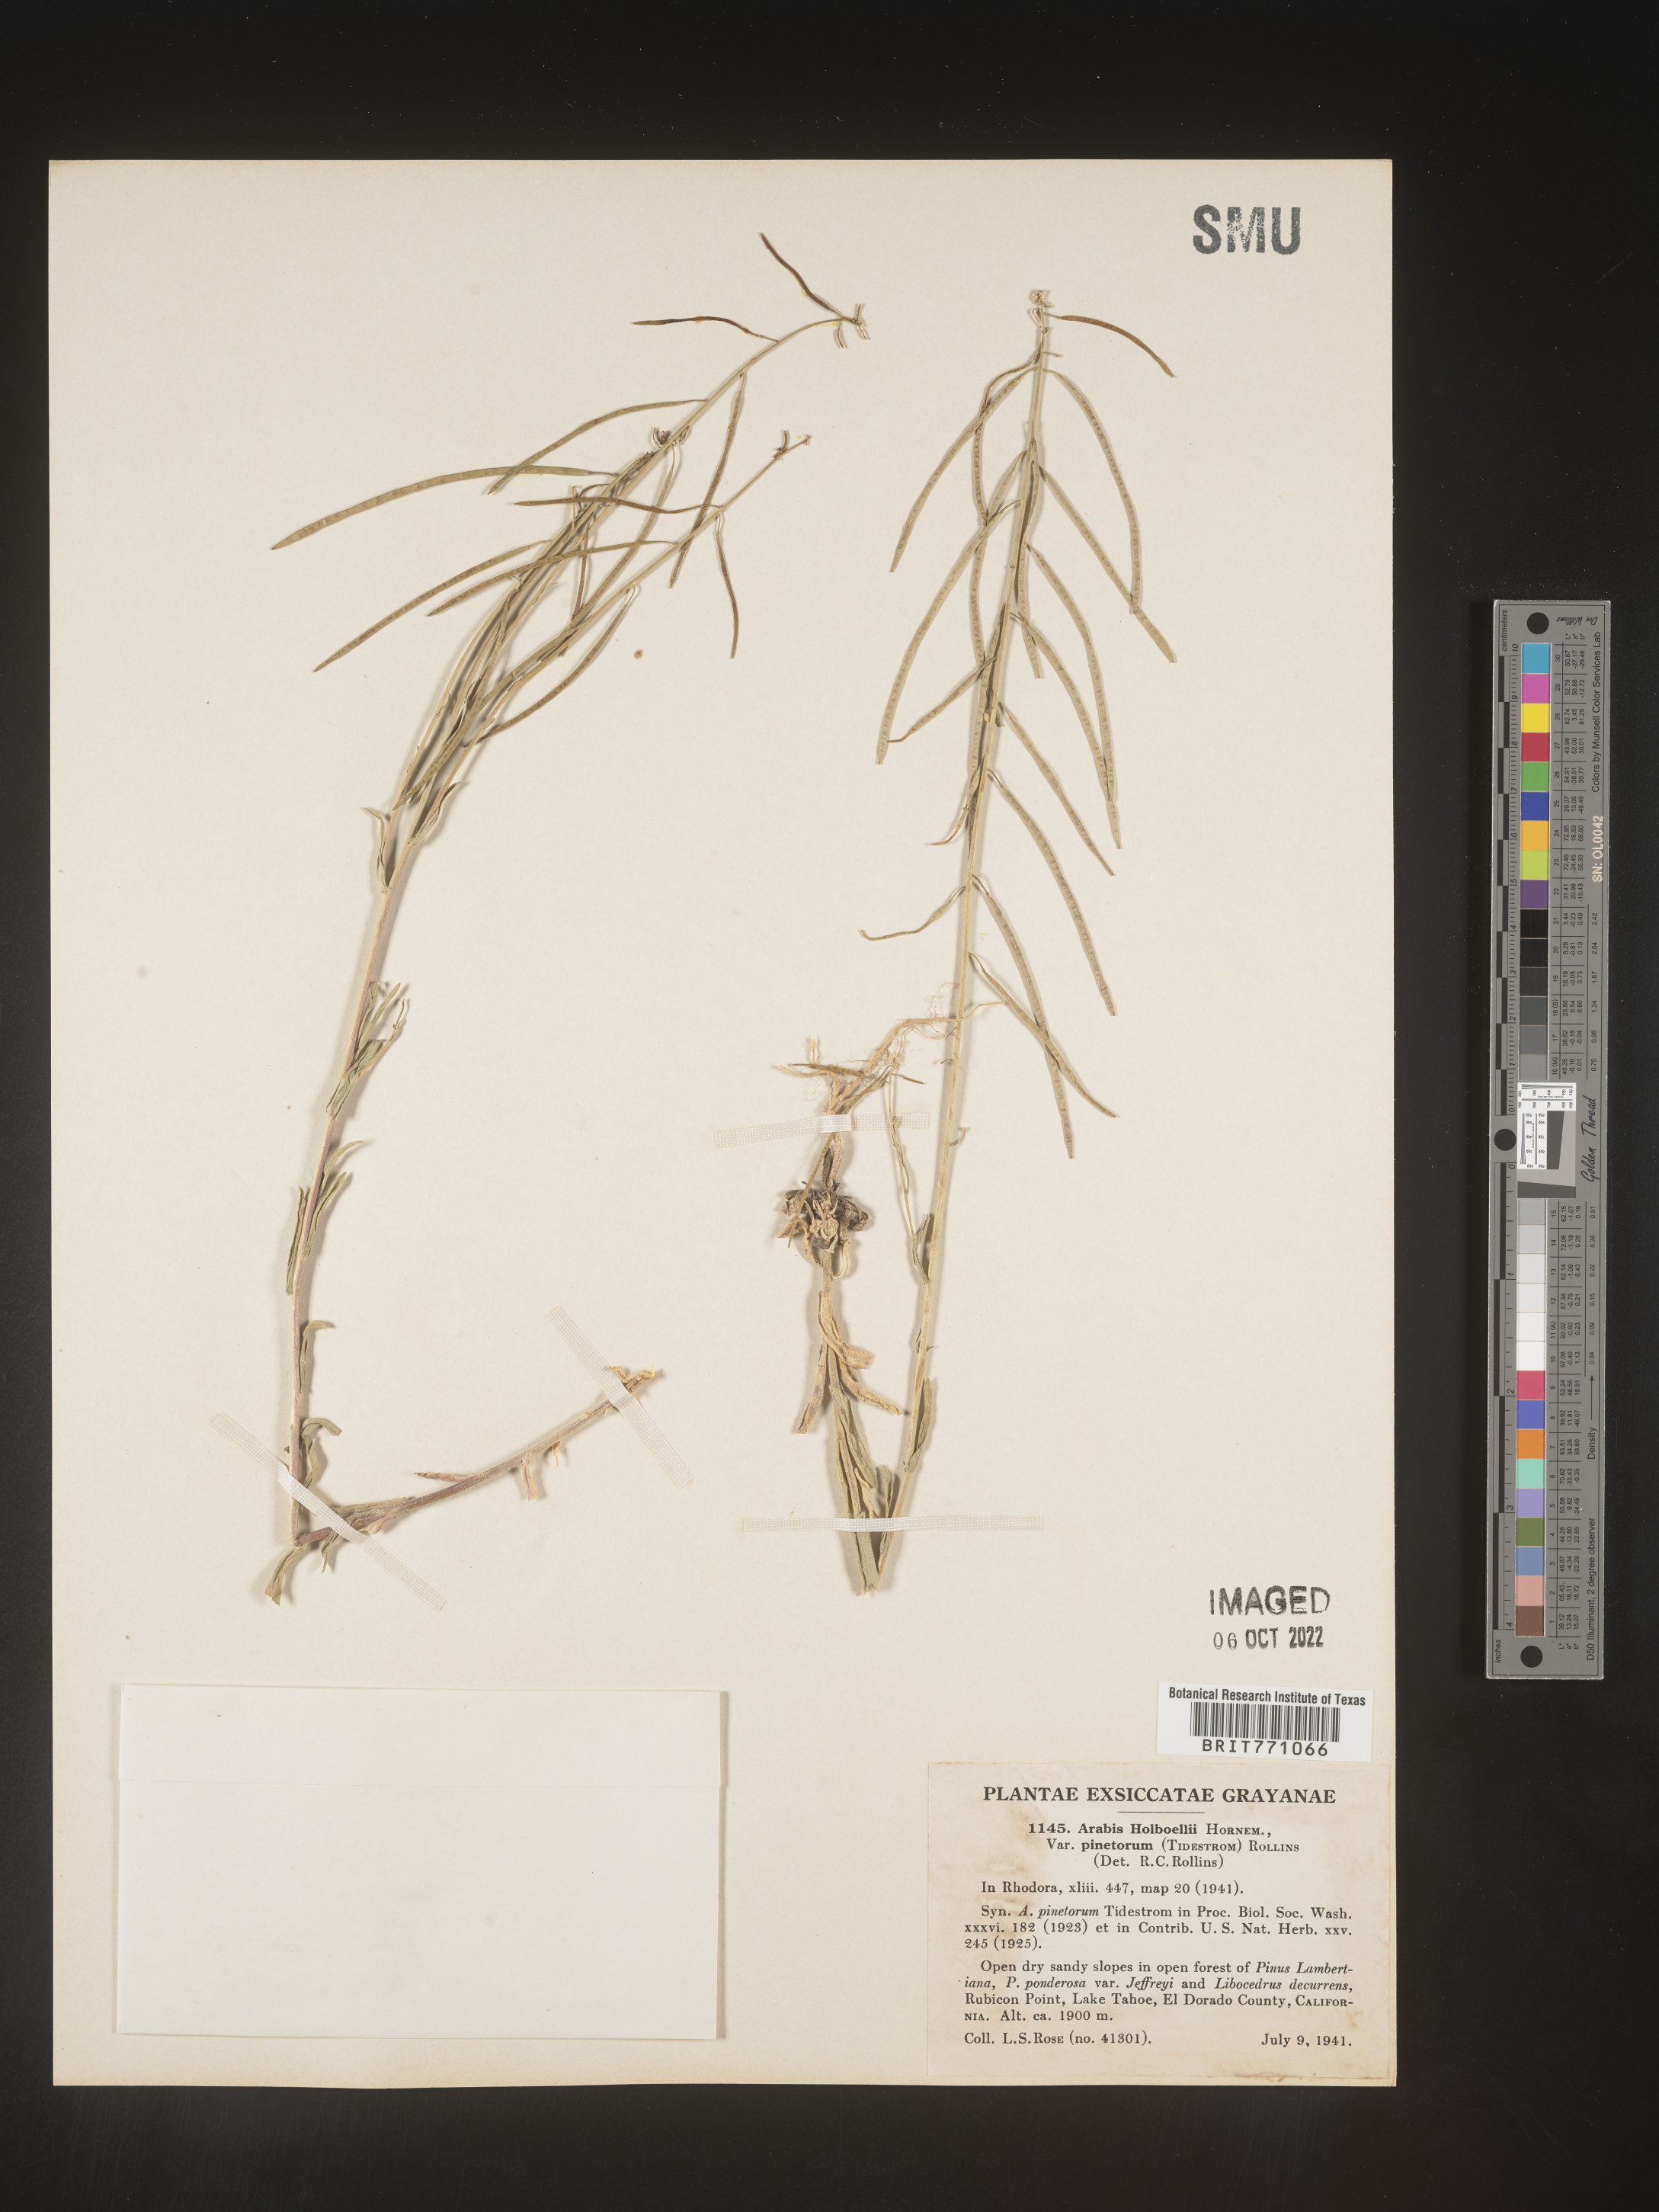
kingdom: Plantae
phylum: Tracheophyta
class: Magnoliopsida
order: Brassicales
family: Brassicaceae
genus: Boechera
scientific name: Boechera holboellii
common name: Holboell's rockcress
